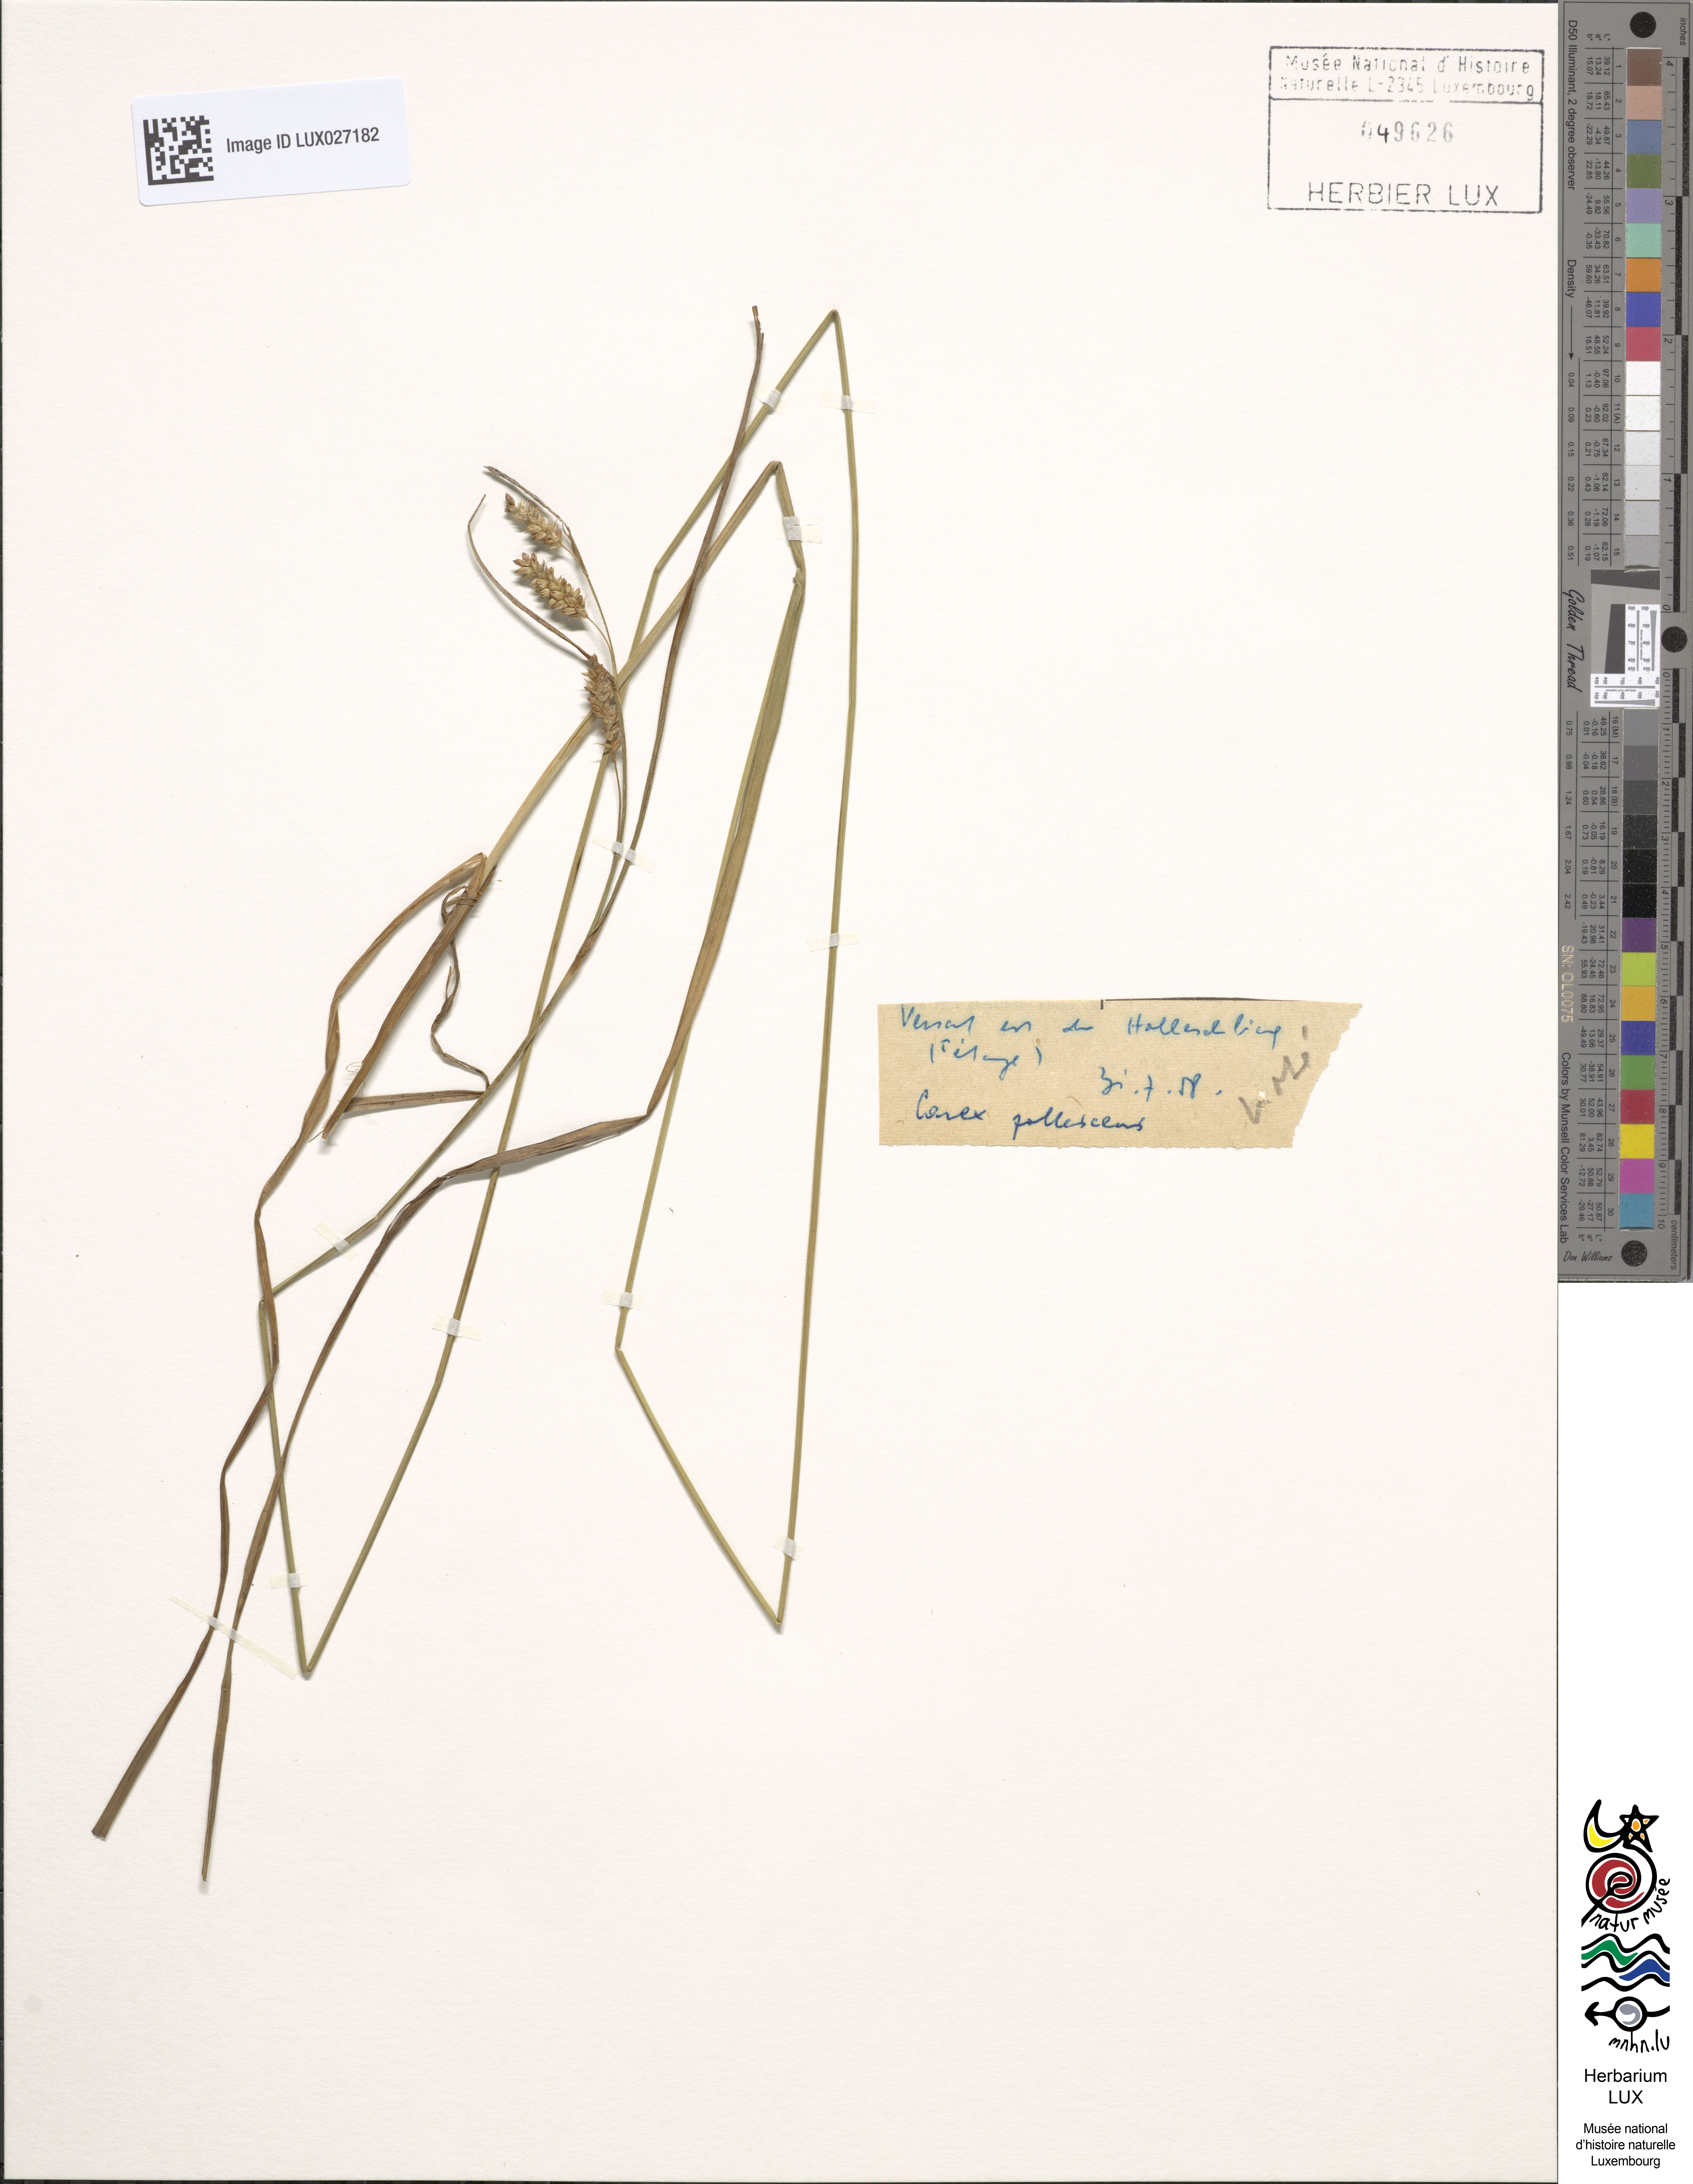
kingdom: Plantae
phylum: Tracheophyta
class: Liliopsida
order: Poales
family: Cyperaceae
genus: Carex
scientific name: Carex pallescens
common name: Pale sedge
